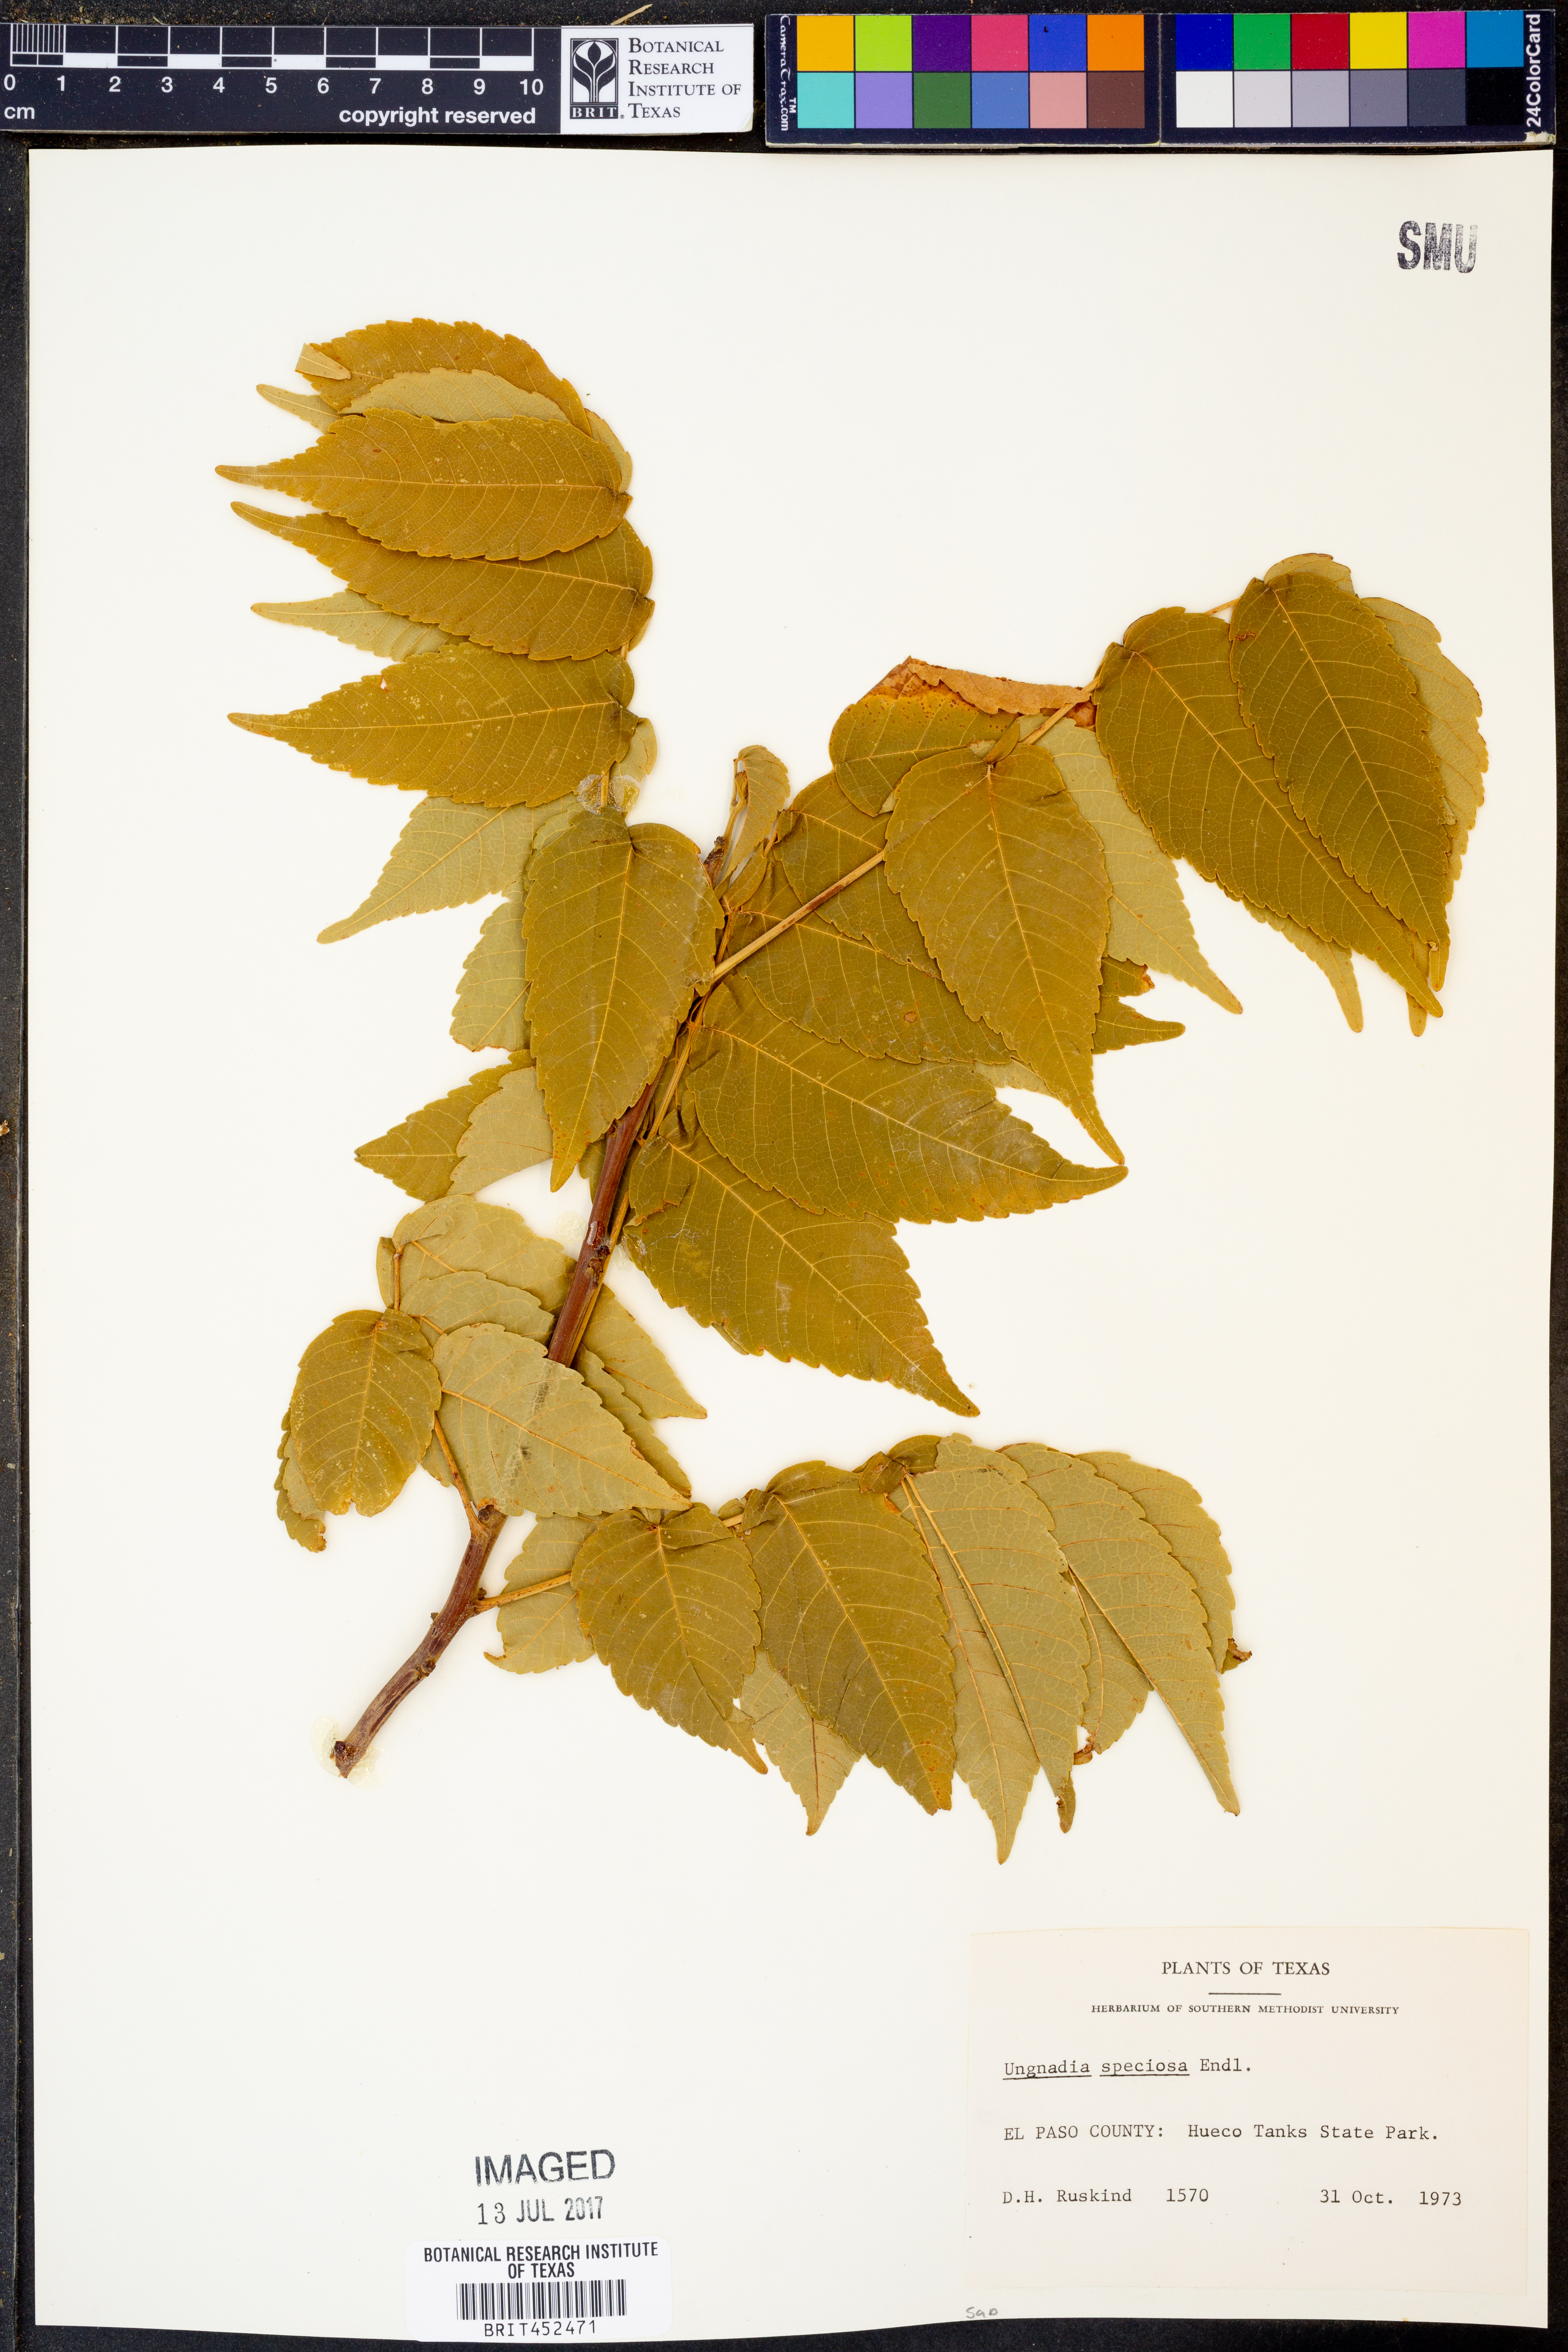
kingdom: Plantae
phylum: Tracheophyta
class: Magnoliopsida
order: Sapindales
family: Sapindaceae
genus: Ungnadia
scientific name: Ungnadia speciosa
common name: Texas-buckeye
